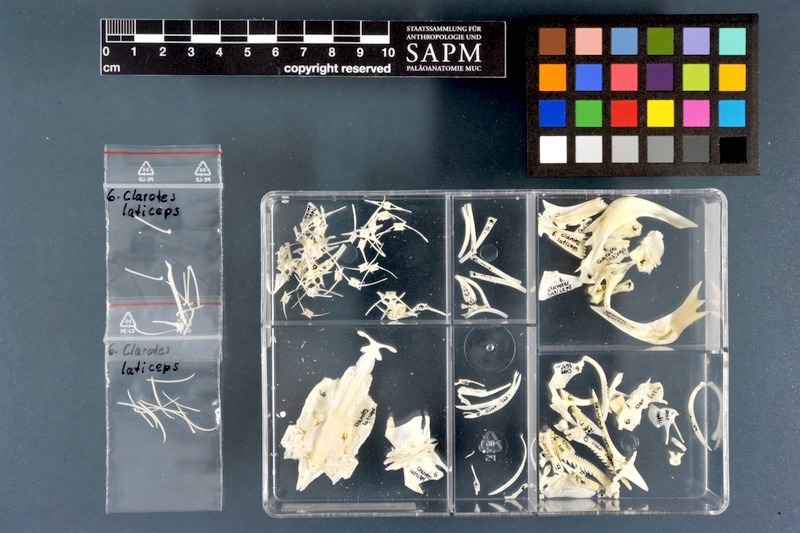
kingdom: Animalia
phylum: Chordata
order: Siluriformes
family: Claroteidae
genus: Clarotes
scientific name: Clarotes laticeps
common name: Spiny catfish
